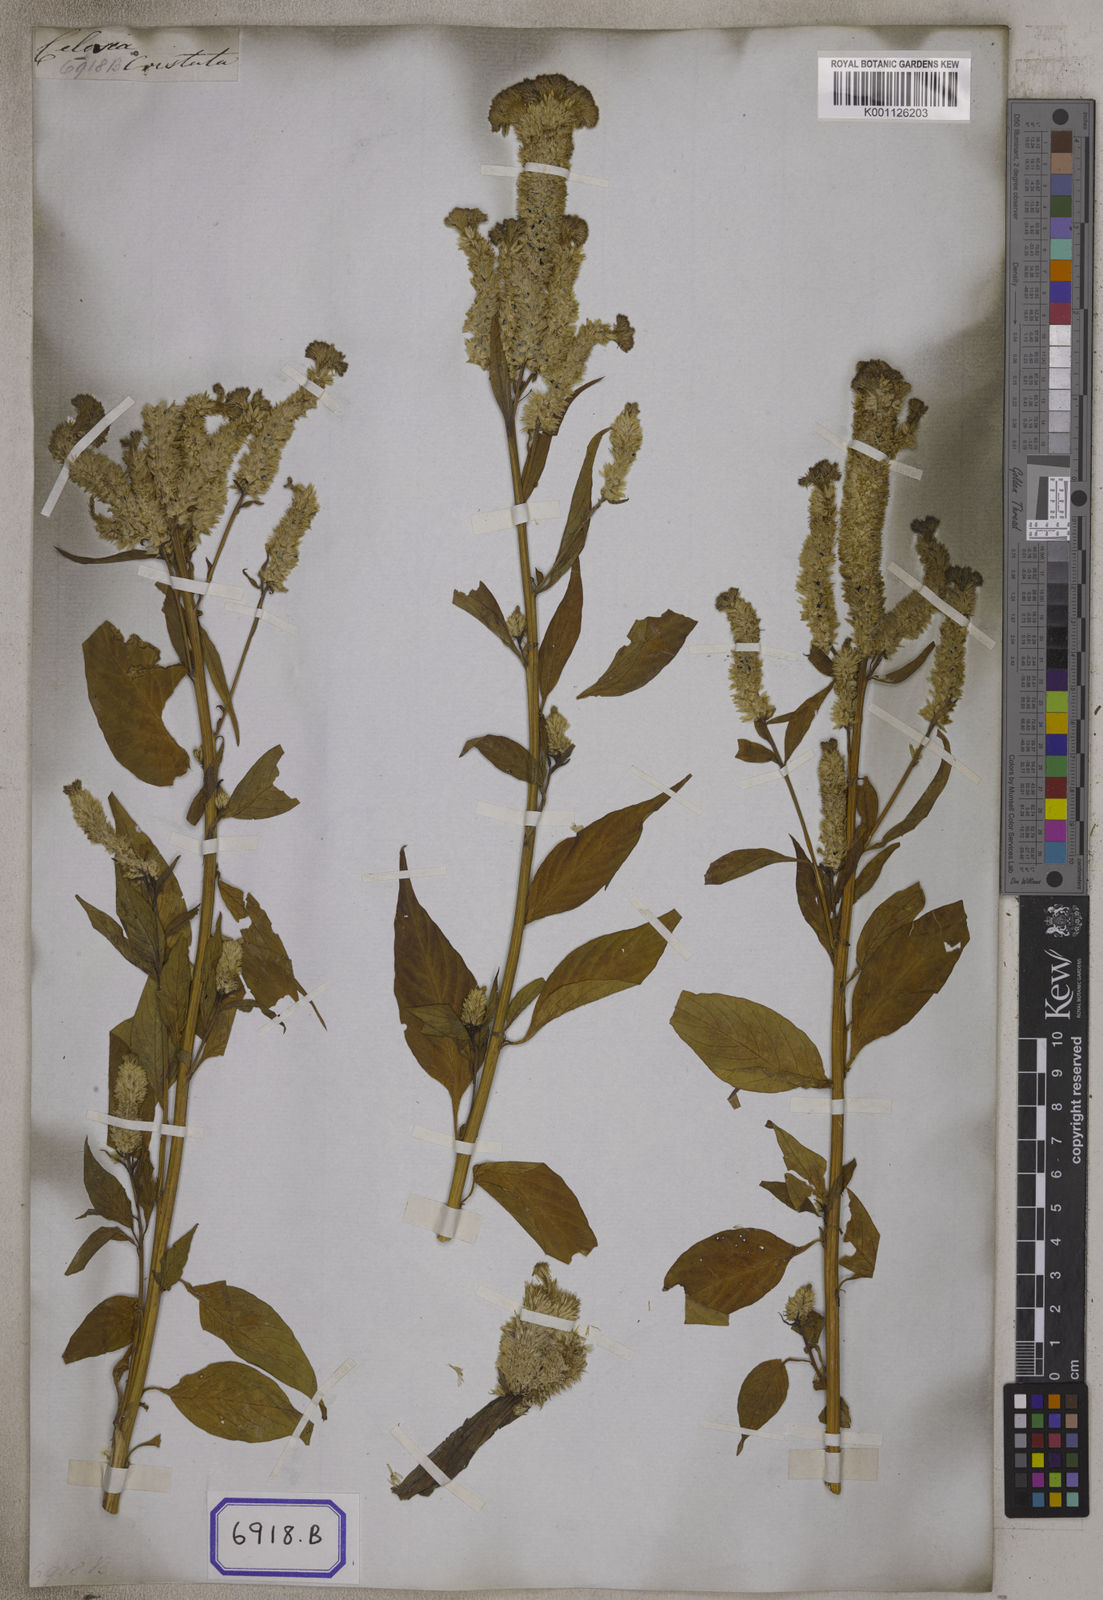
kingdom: Plantae
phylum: Tracheophyta
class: Magnoliopsida
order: Caryophyllales
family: Amaranthaceae
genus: Celosia
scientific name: Celosia argentea
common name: Feather cockscomb
